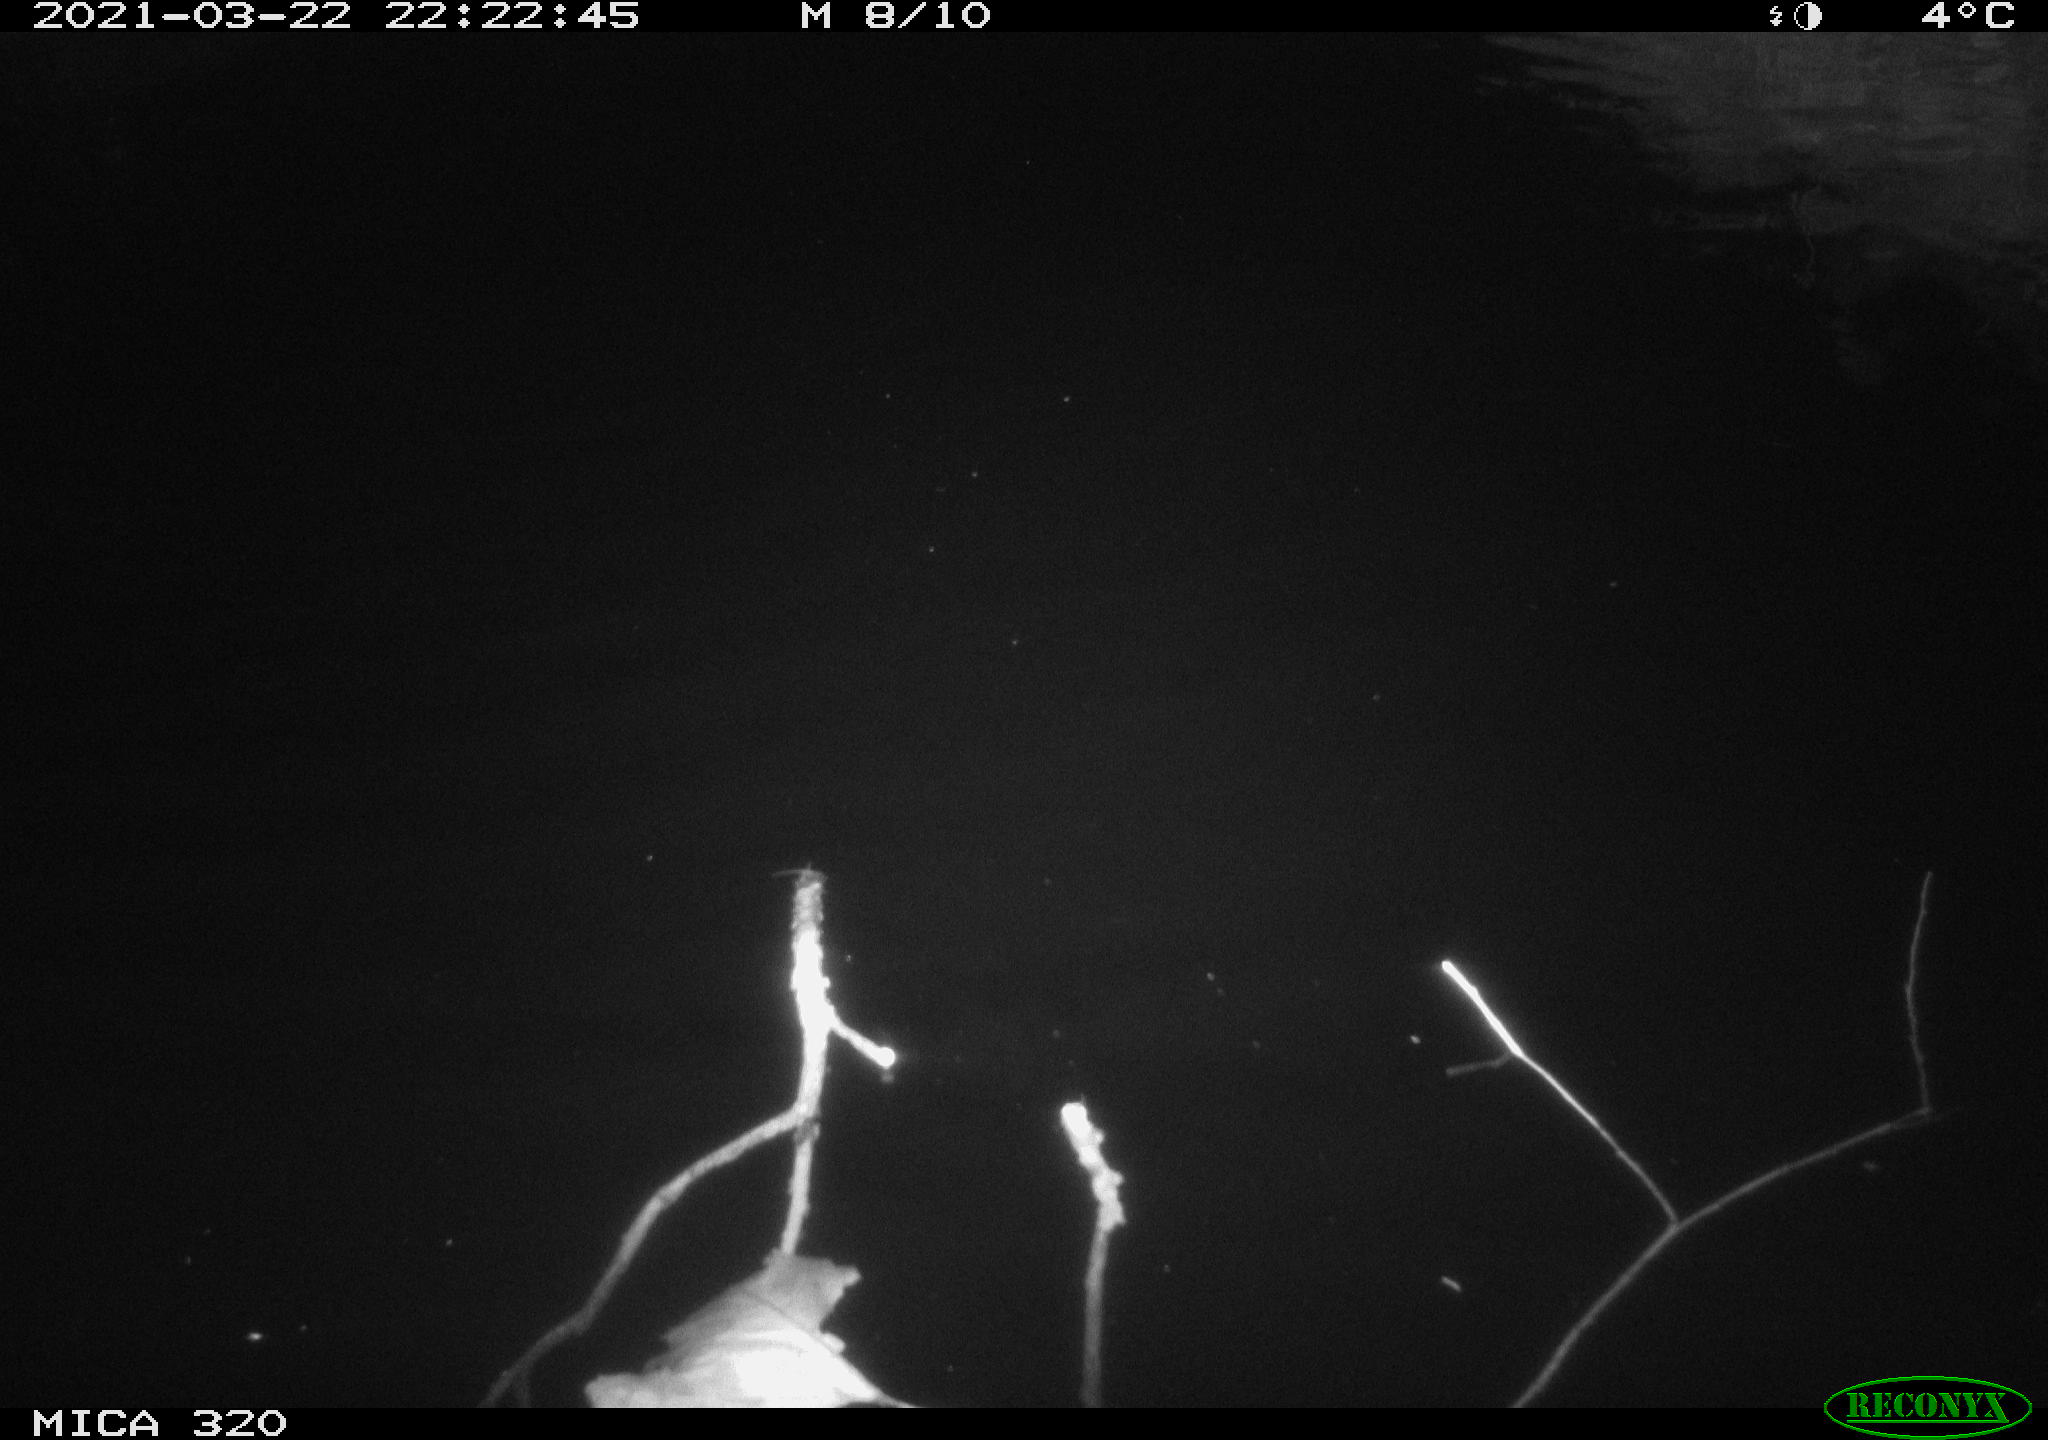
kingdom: Animalia
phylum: Chordata
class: Aves
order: Anseriformes
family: Anatidae
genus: Anas
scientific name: Anas platyrhynchos
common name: Mallard
